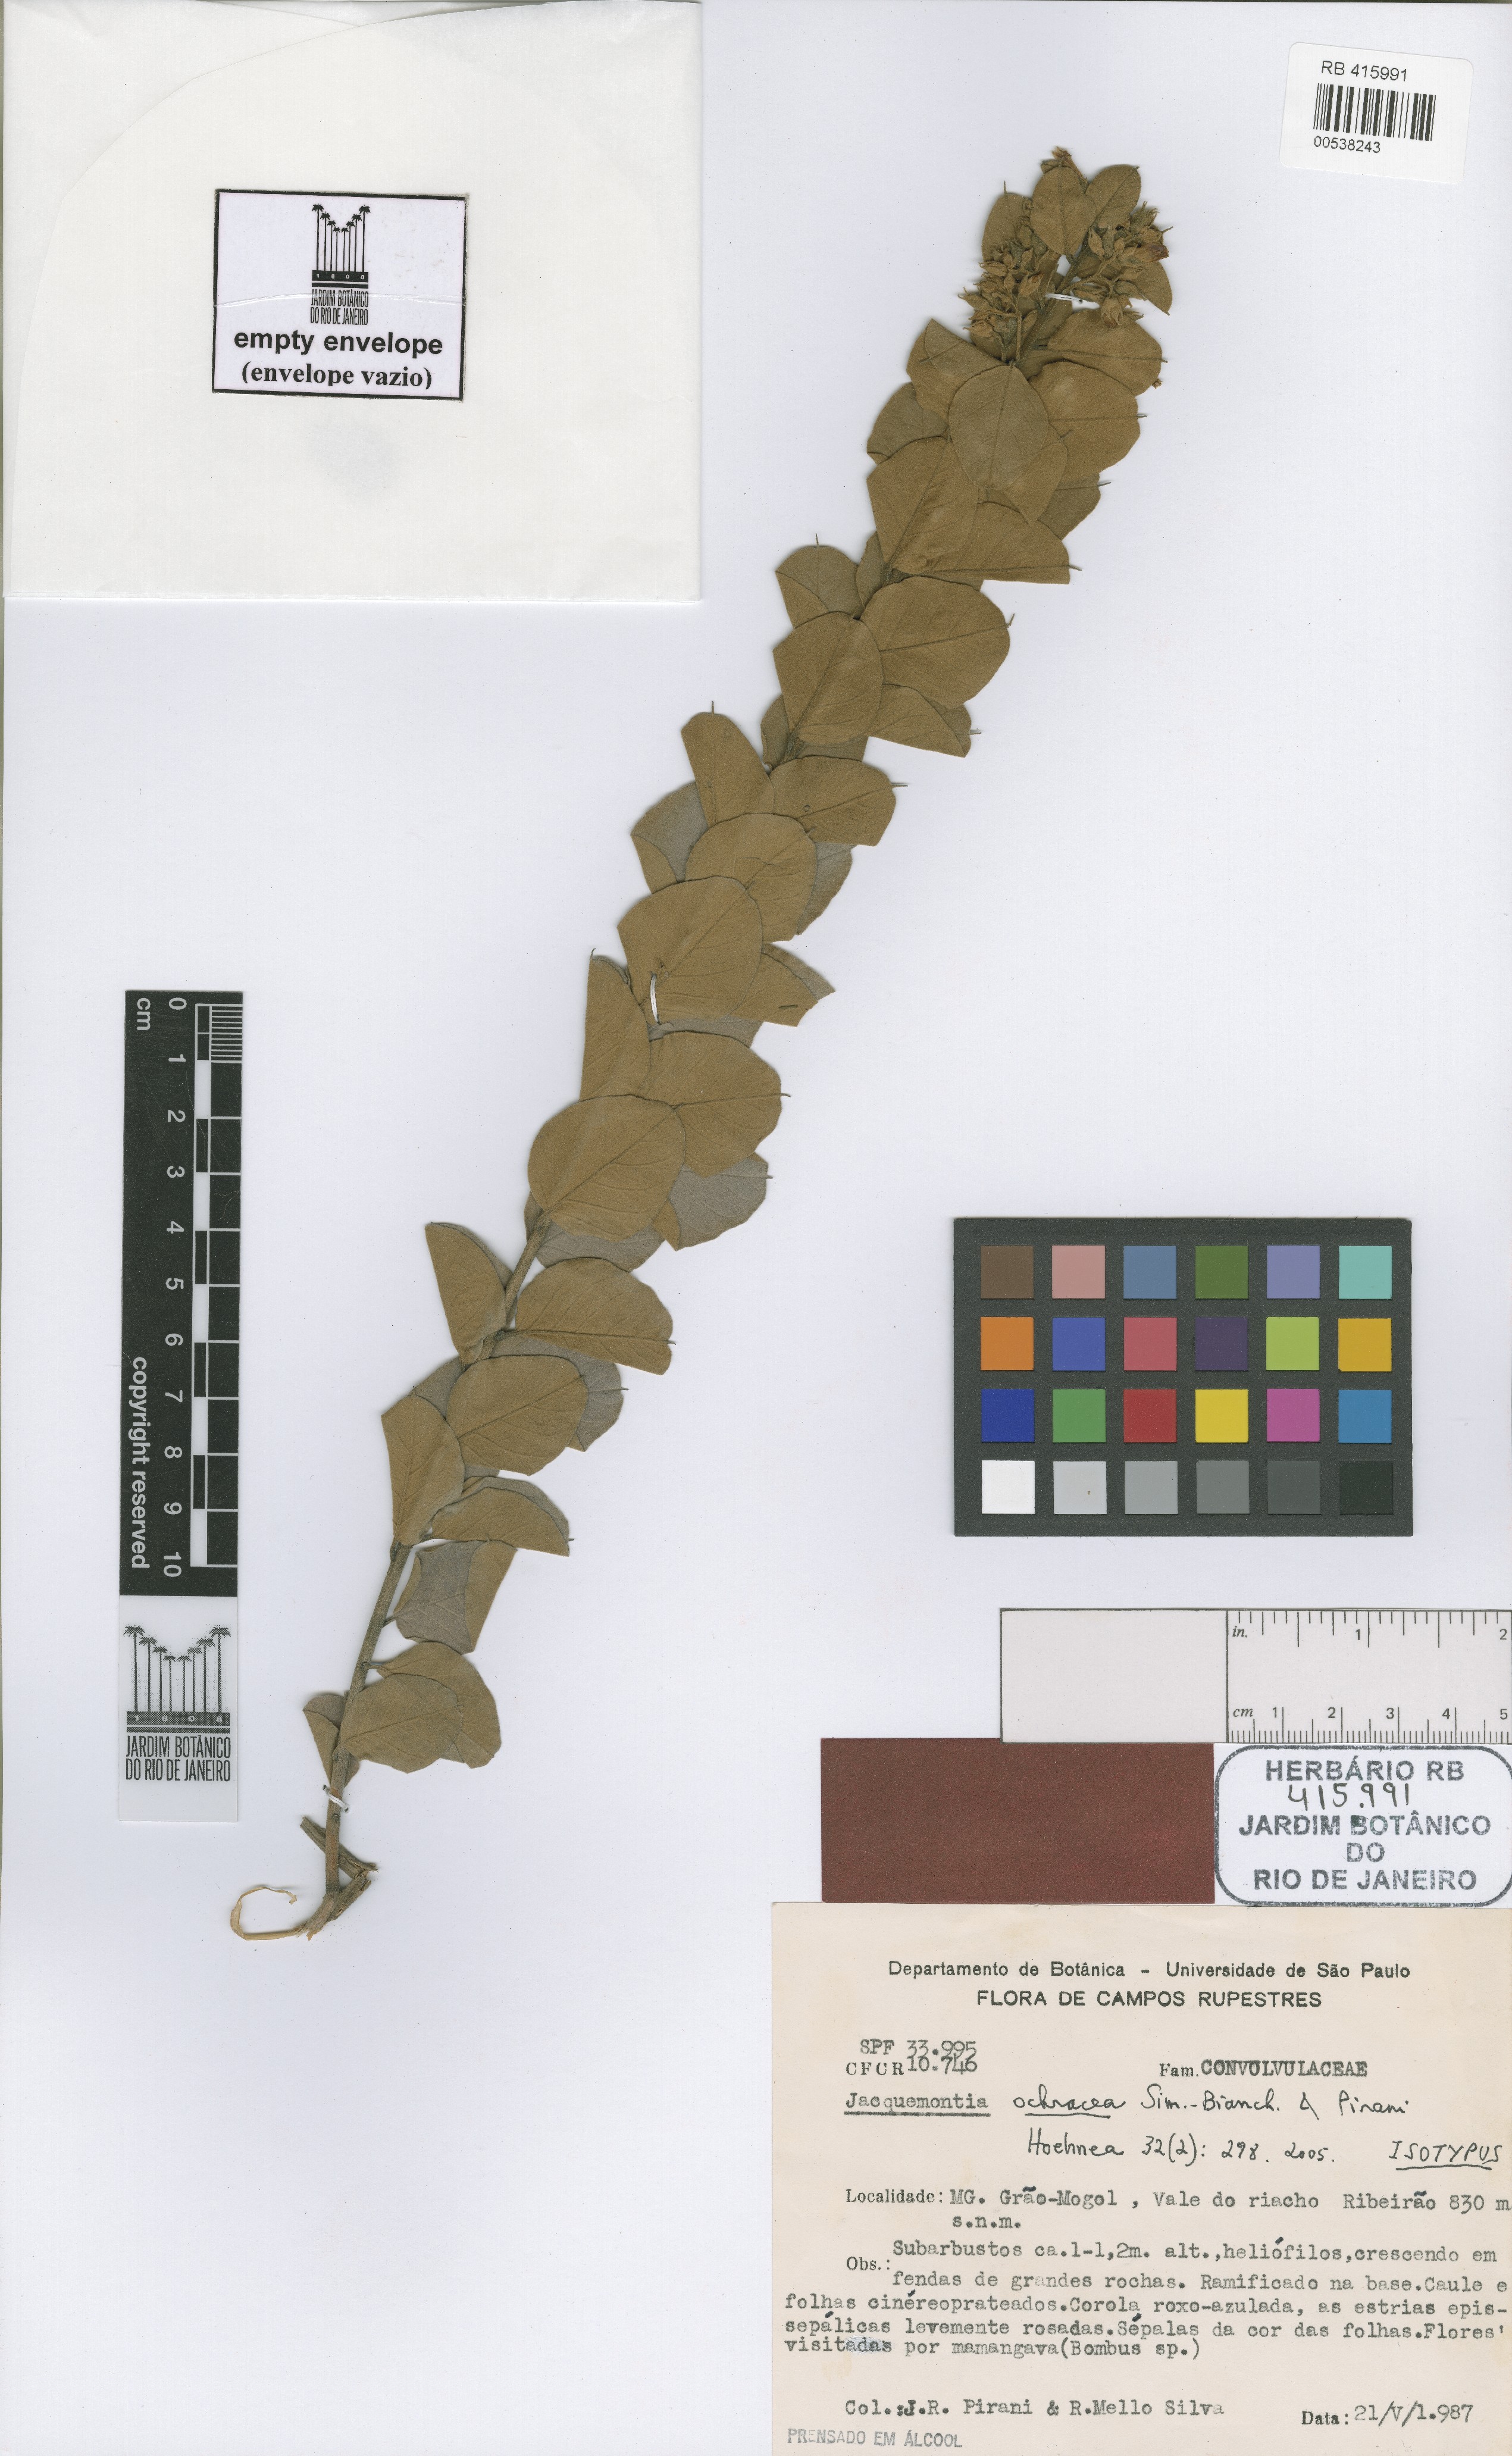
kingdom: Plantae
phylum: Tracheophyta
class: Magnoliopsida
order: Solanales
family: Convolvulaceae
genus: Jacquemontia
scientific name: Jacquemontia ochracea
